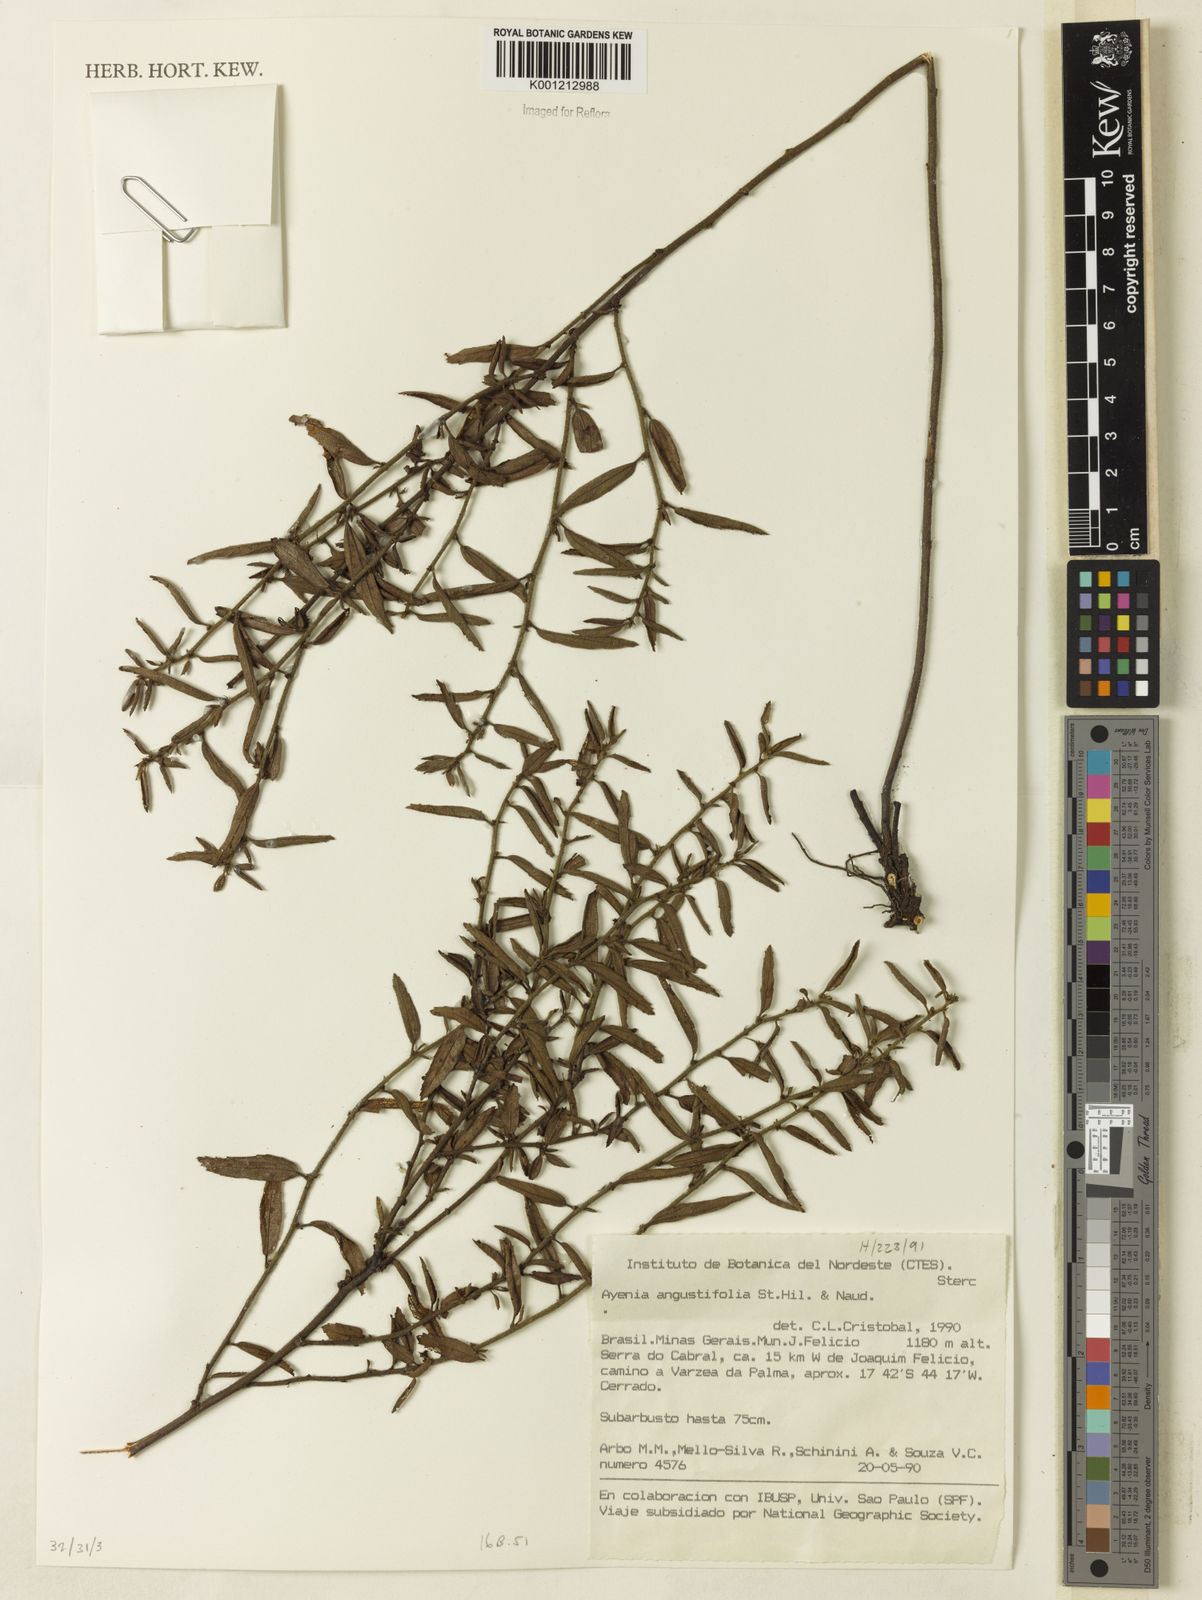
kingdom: Plantae
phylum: Tracheophyta
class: Magnoliopsida
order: Malvales
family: Malvaceae
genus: Ayenia
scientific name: Ayenia angustifolia
